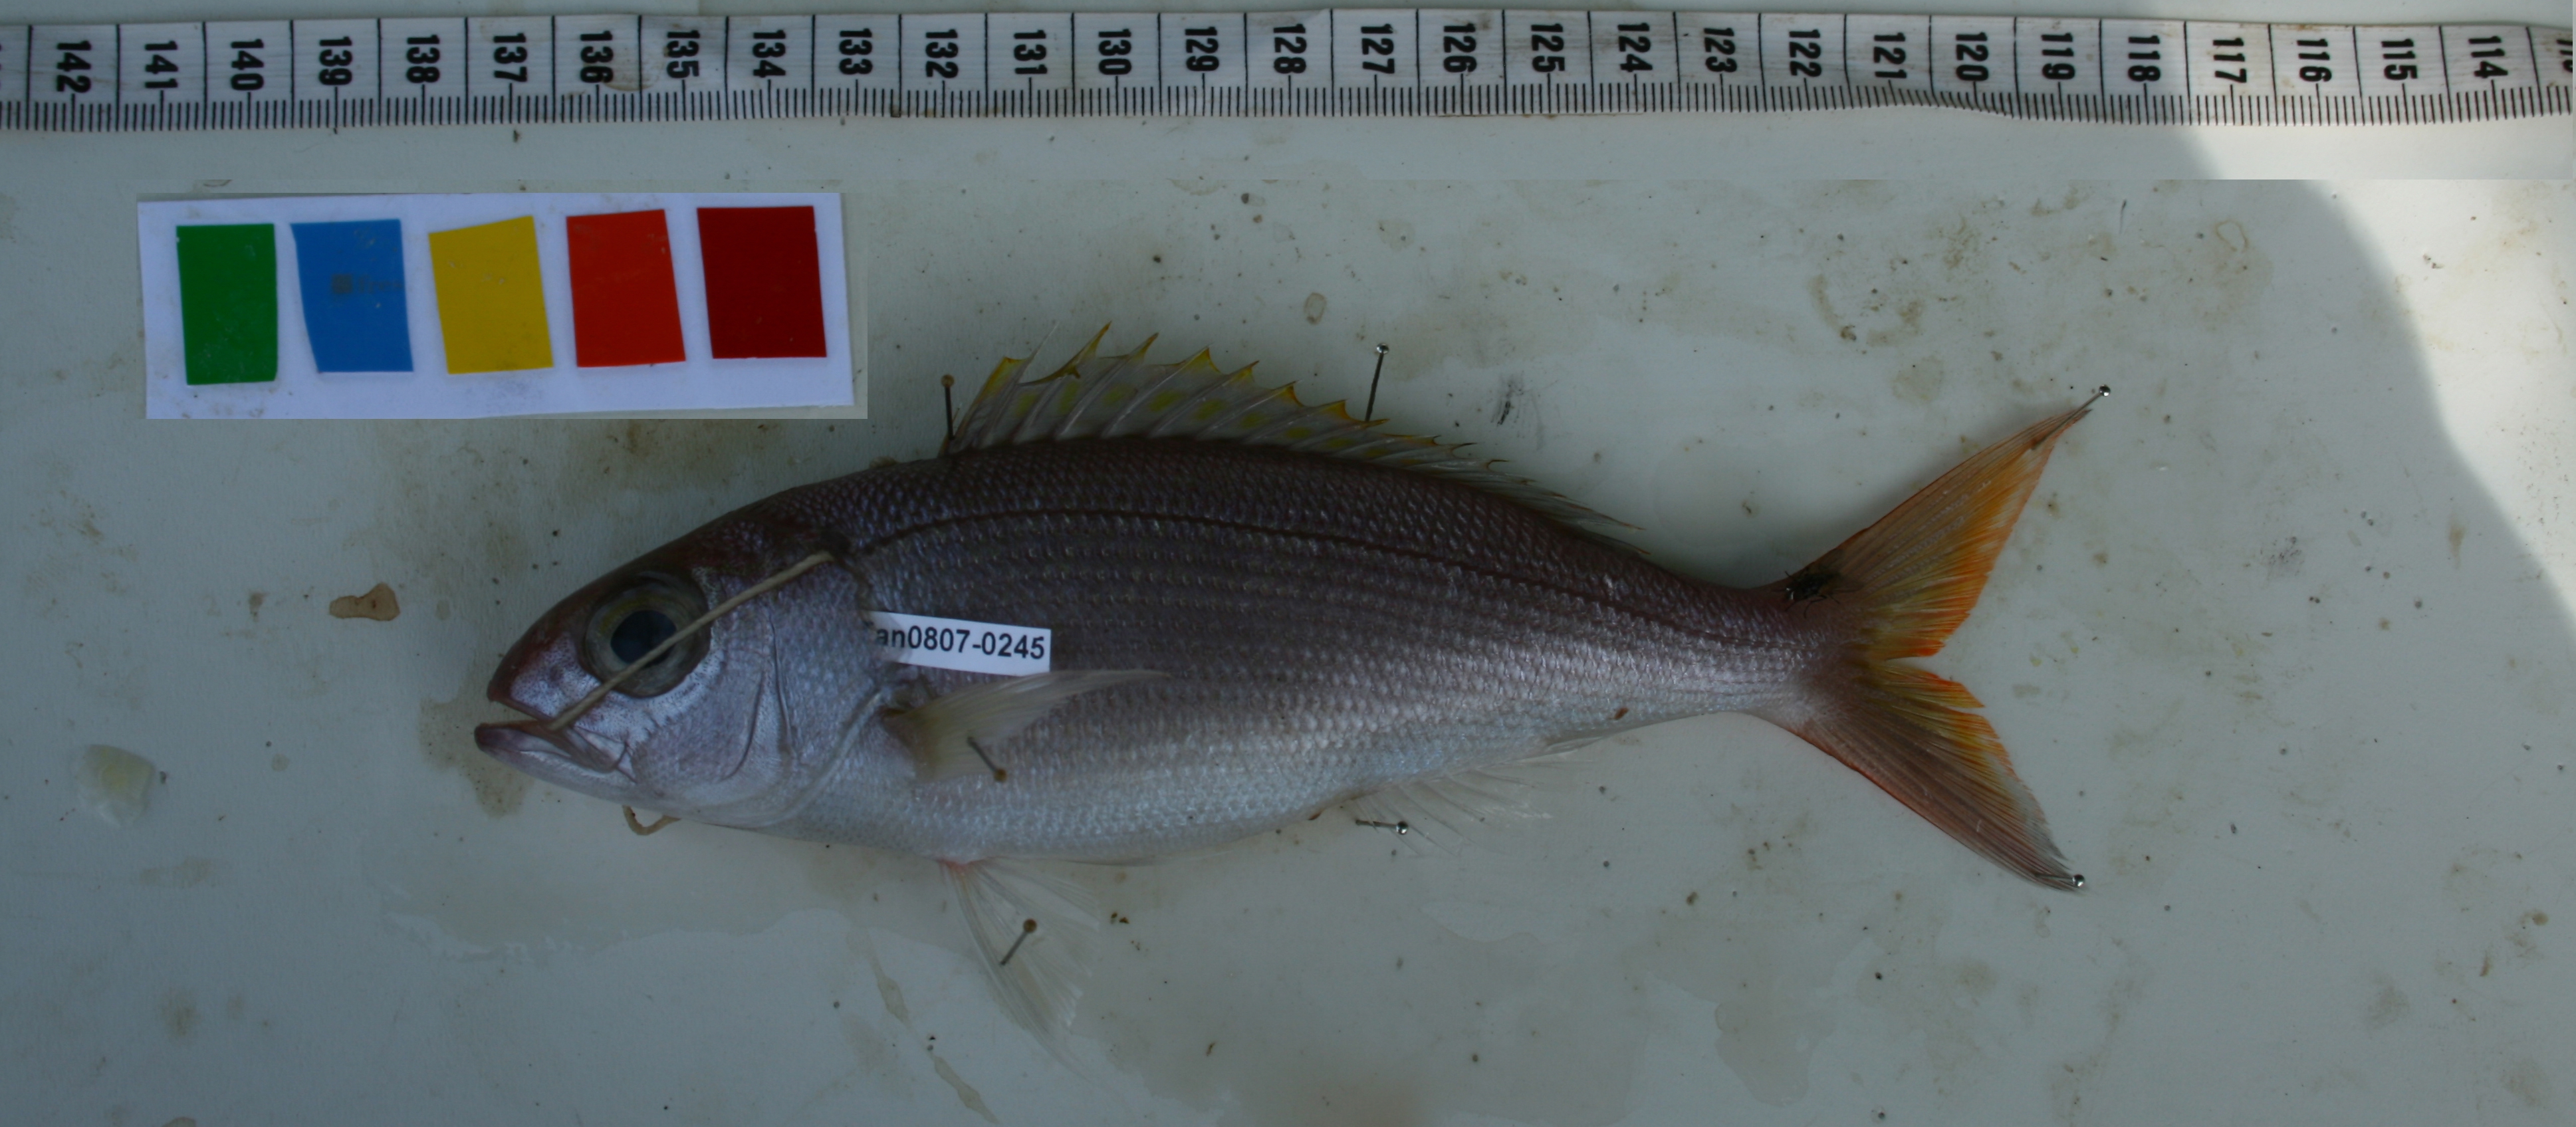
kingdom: Animalia
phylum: Chordata
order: Perciformes
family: Lutjanidae
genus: Pristipomoides
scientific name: Pristipomoides filamentosus
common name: Bluespot jobfish
